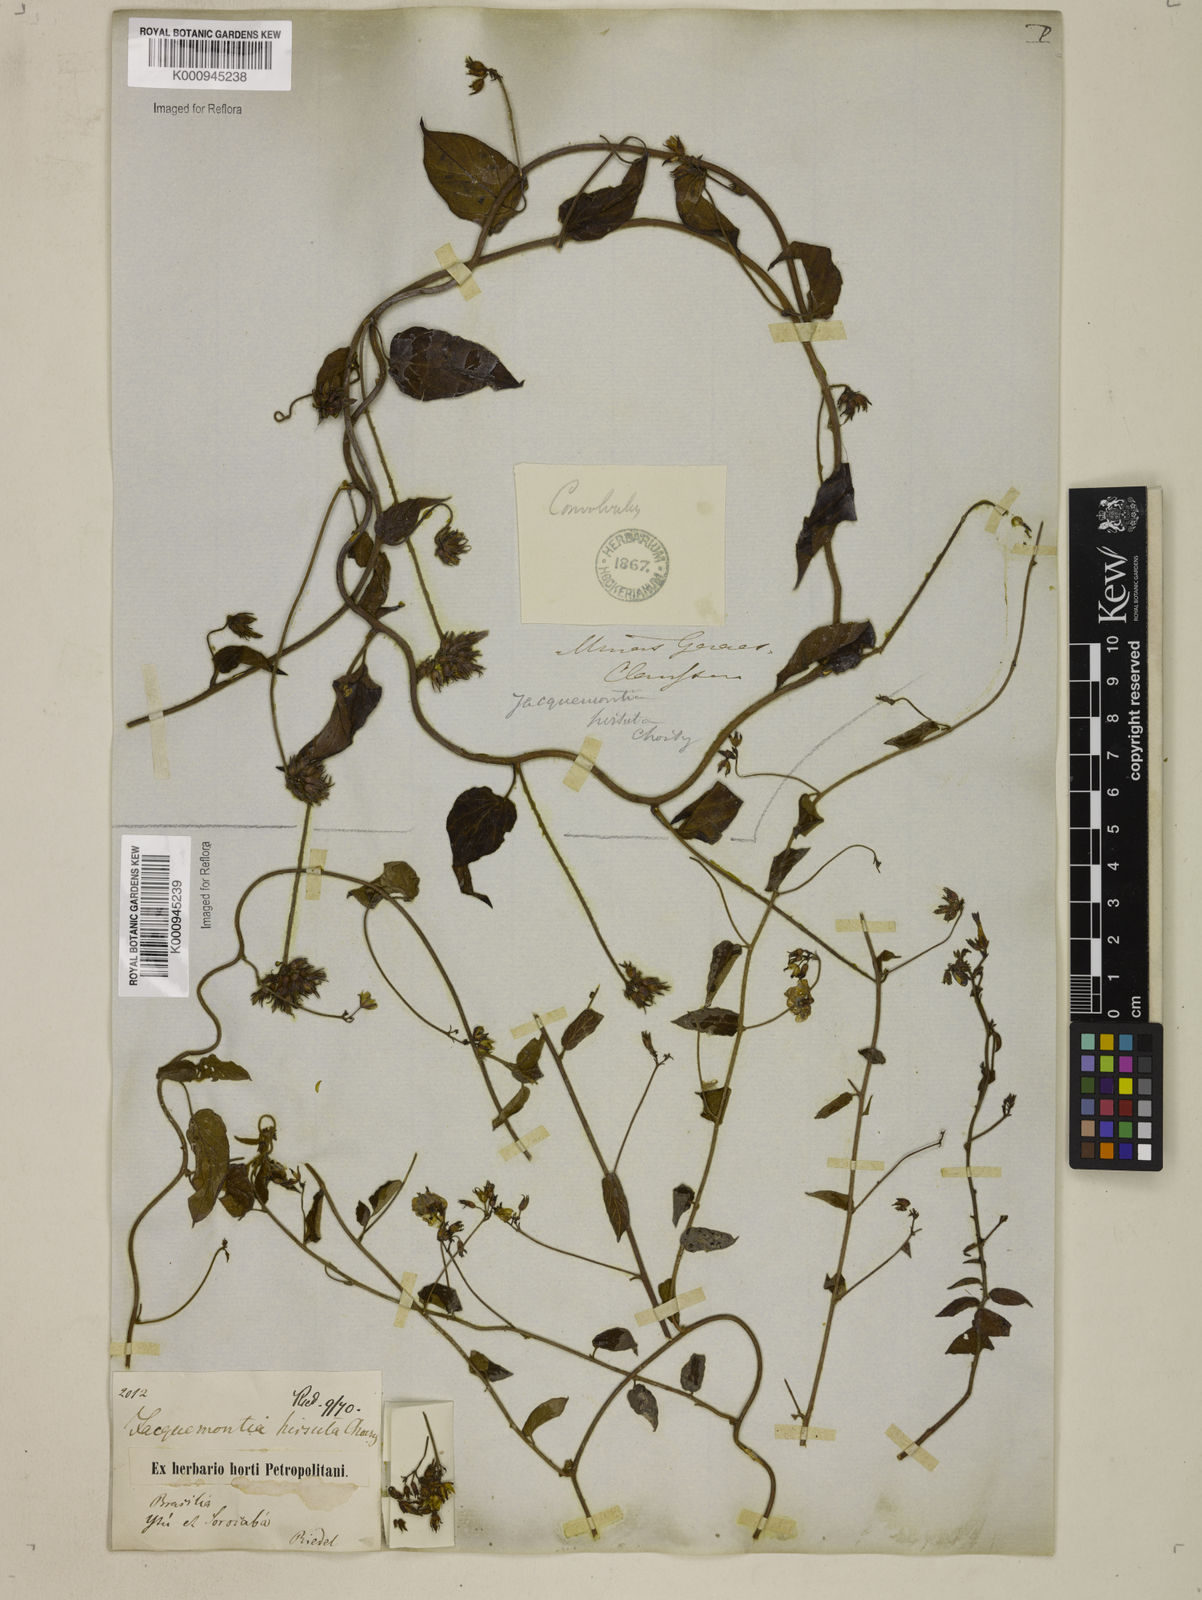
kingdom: Plantae
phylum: Tracheophyta
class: Magnoliopsida
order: Solanales
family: Convolvulaceae
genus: Jacquemontia
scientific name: Jacquemontia sphaerostigma
